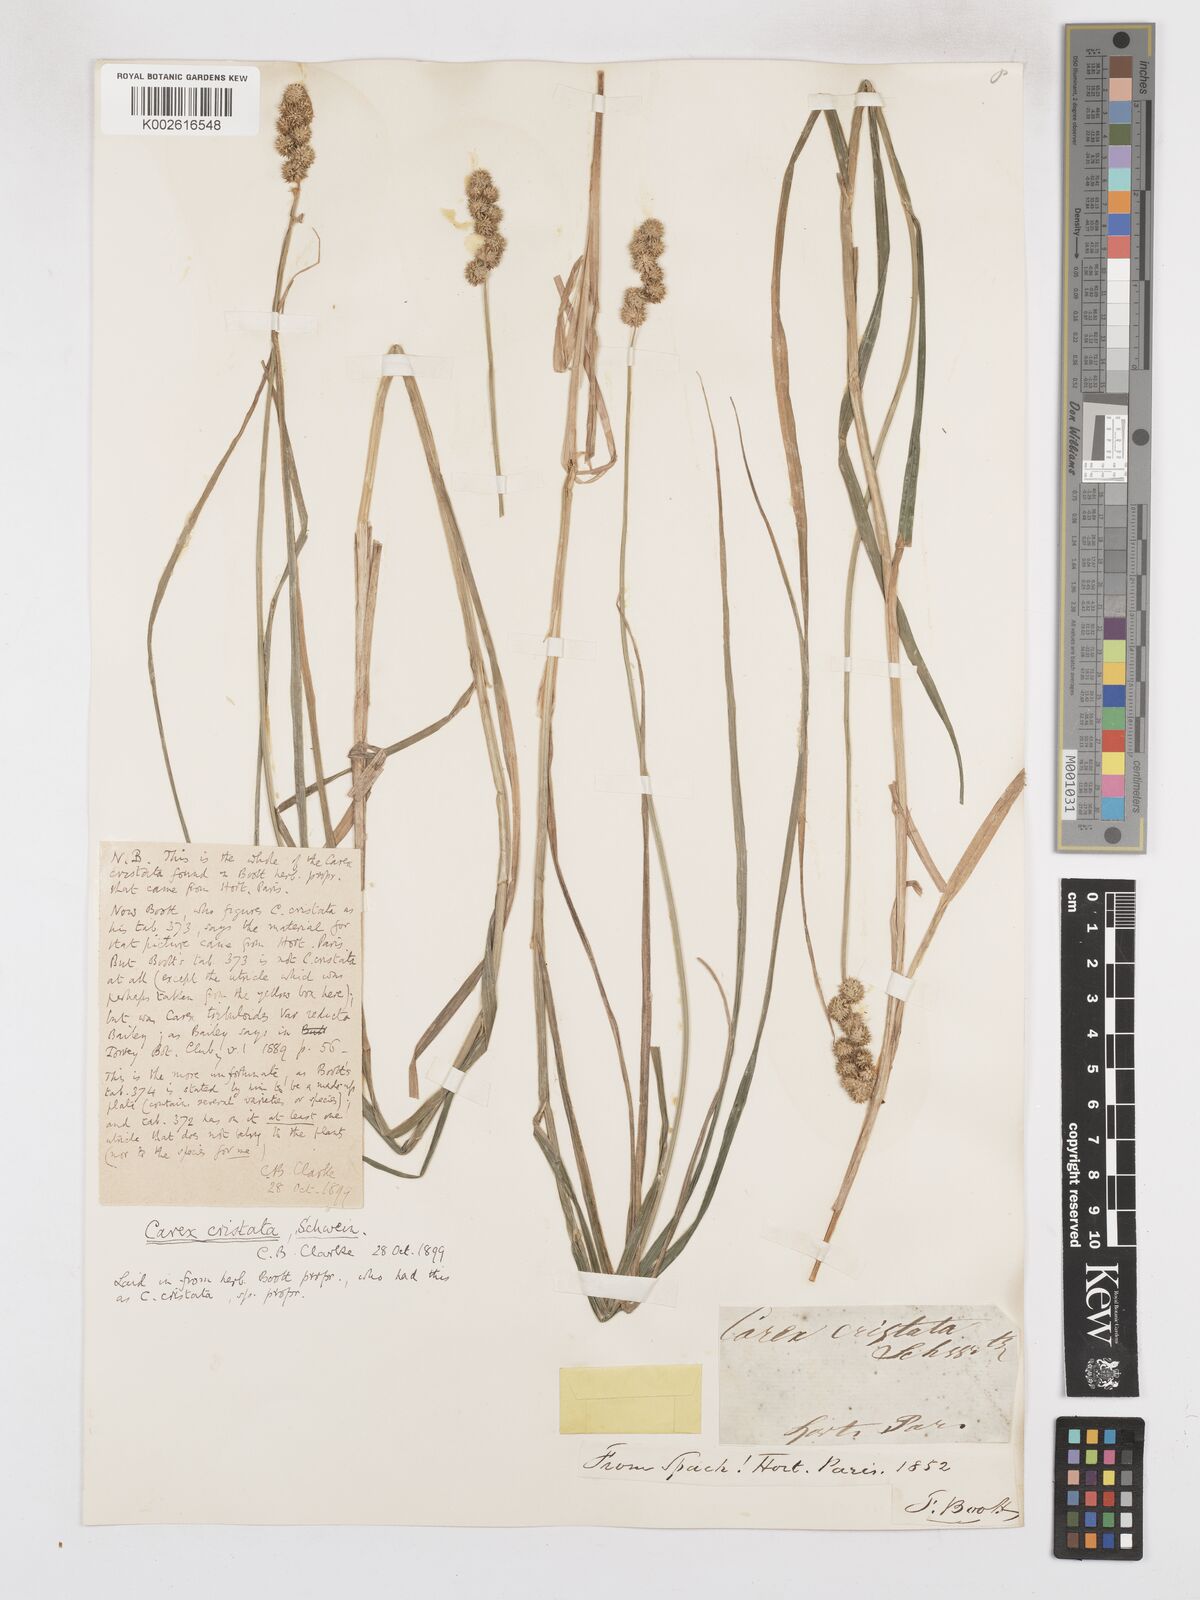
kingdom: Plantae
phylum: Tracheophyta
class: Liliopsida
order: Poales
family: Cyperaceae
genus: Carex
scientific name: Carex cristatella
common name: Crested oval sedge
